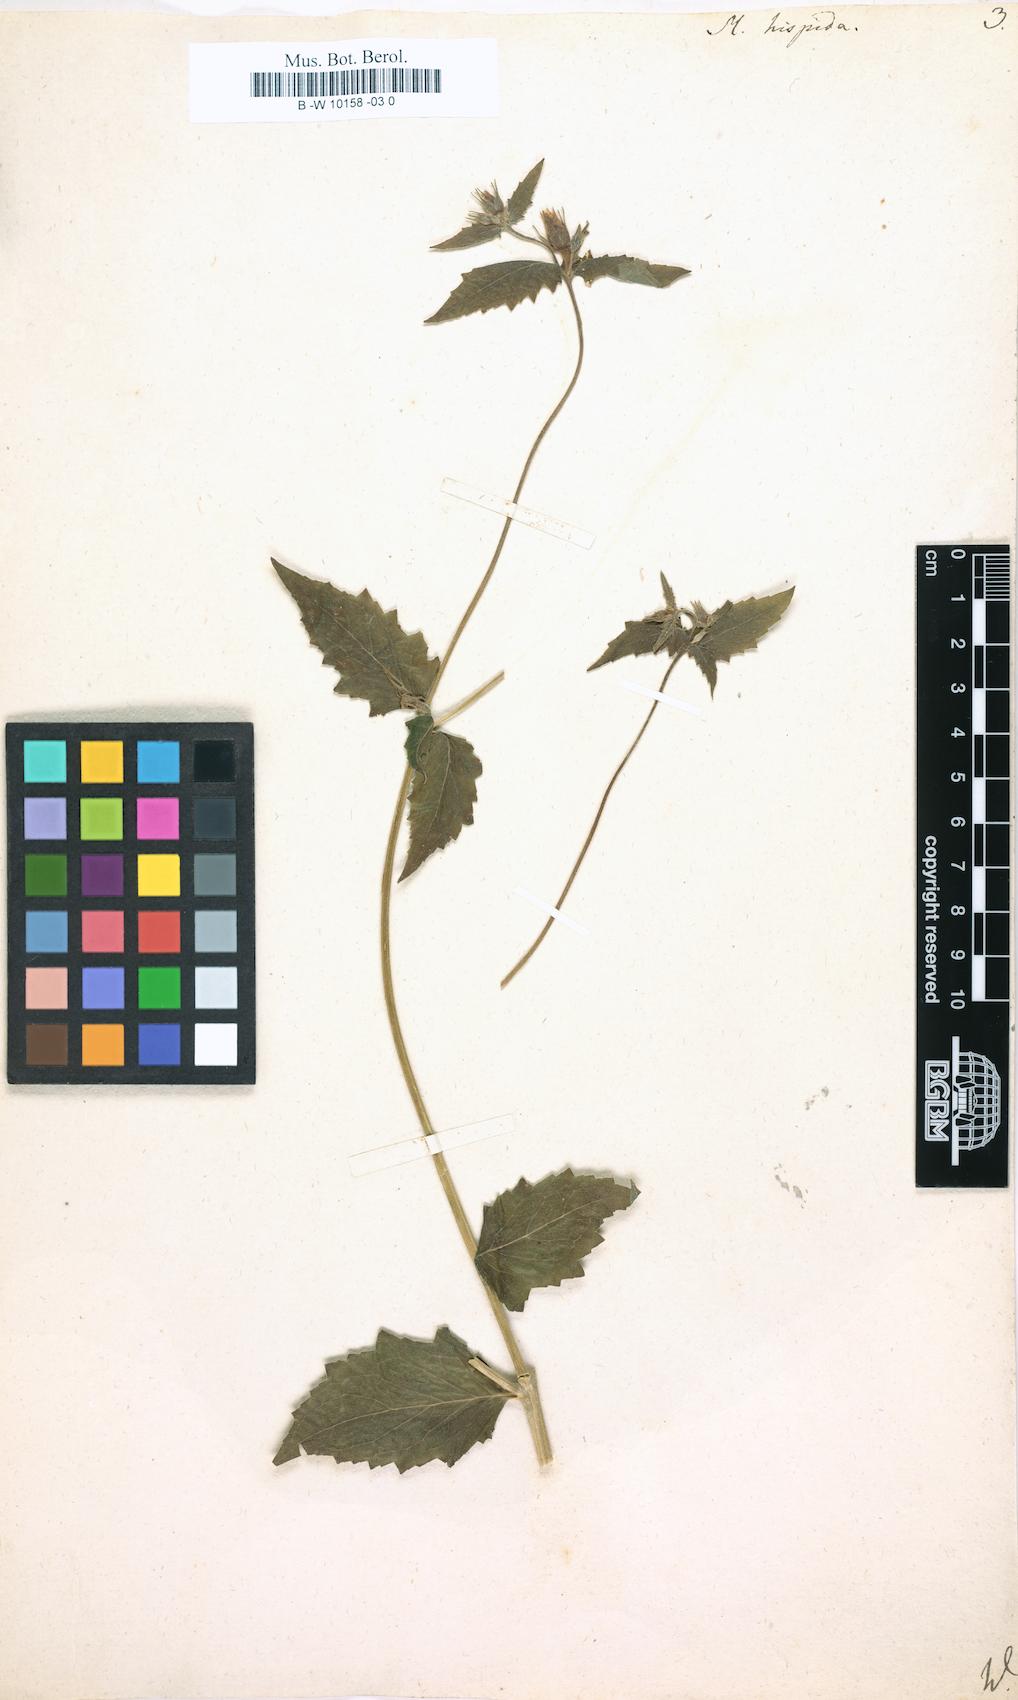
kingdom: Plantae
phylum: Tracheophyta
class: Magnoliopsida
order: Cornales
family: Loasaceae
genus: Mentzelia
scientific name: Mentzelia hispida
